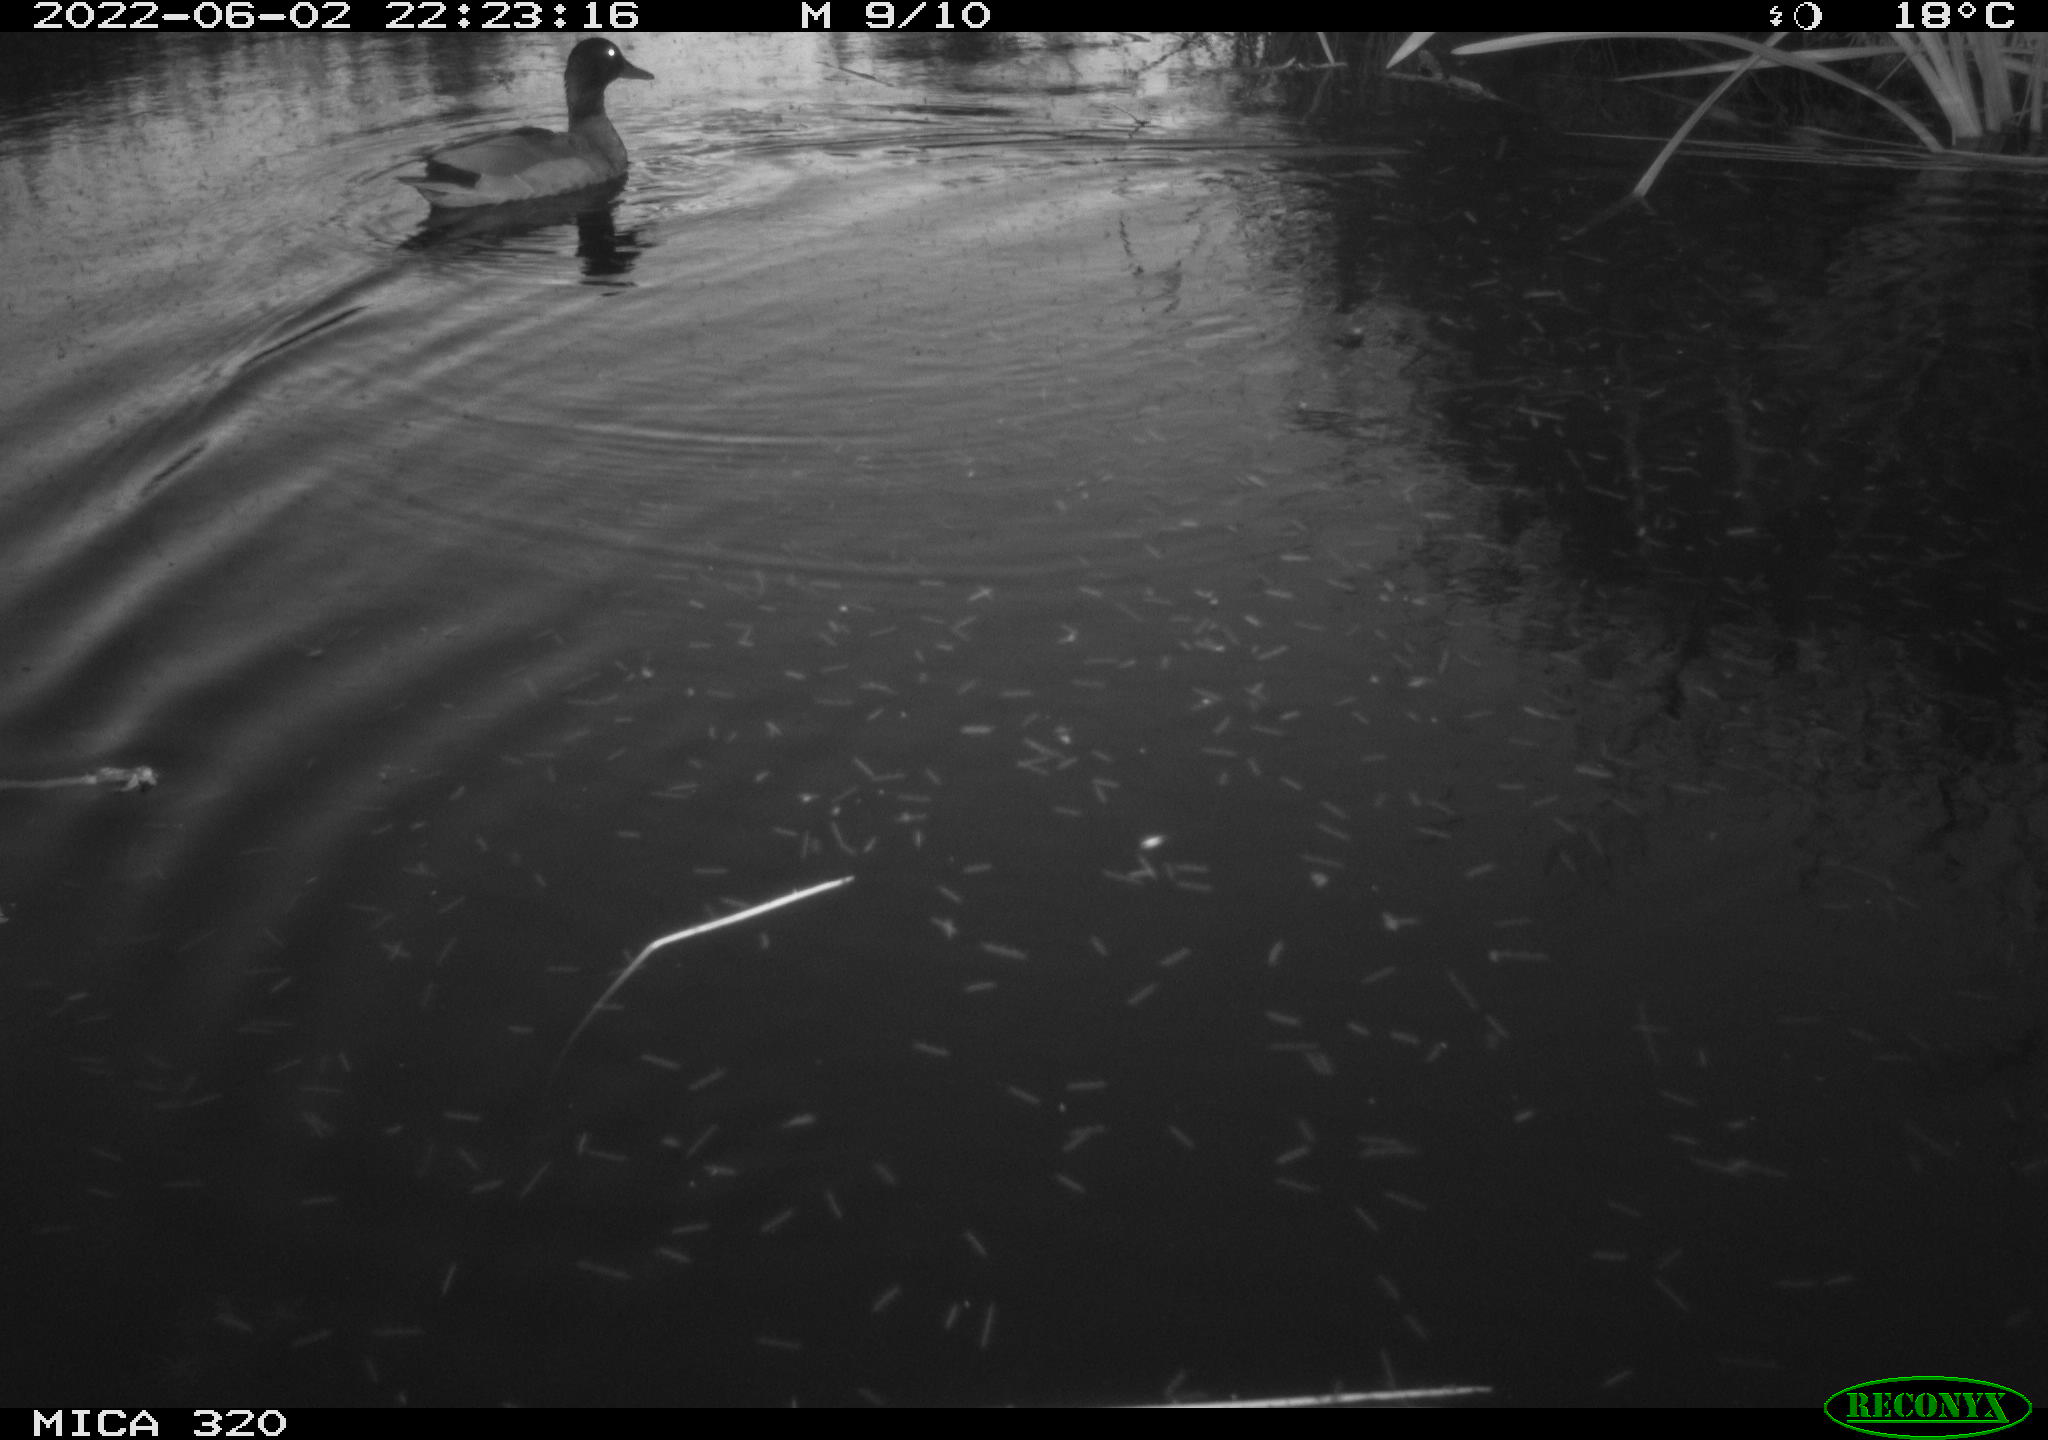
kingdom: Animalia
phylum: Chordata
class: Aves
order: Anseriformes
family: Anatidae
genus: Anas
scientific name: Anas platyrhynchos
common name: Mallard
